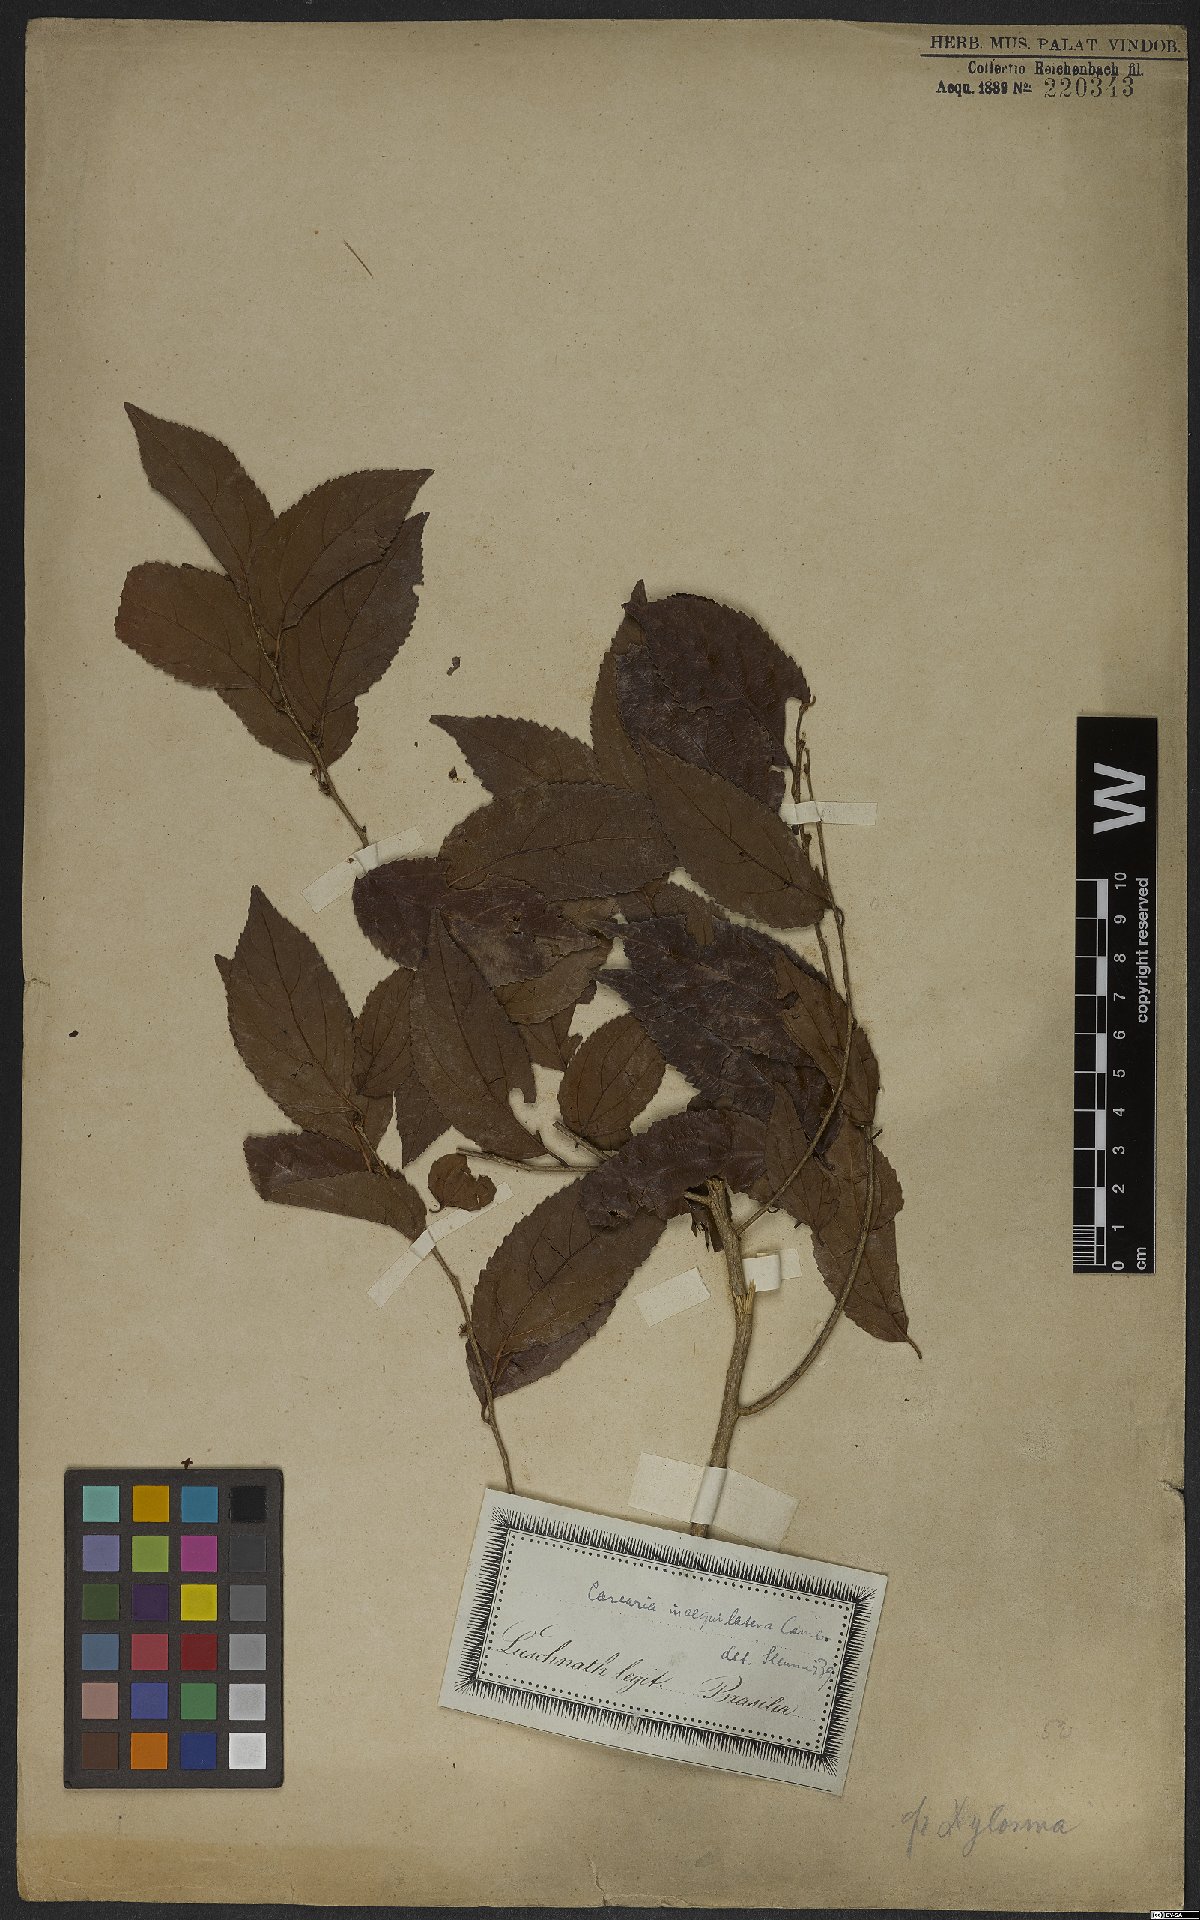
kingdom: Plantae
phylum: Tracheophyta
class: Magnoliopsida
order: Malpighiales
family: Salicaceae
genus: Casearia
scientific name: Casearia obliqua
